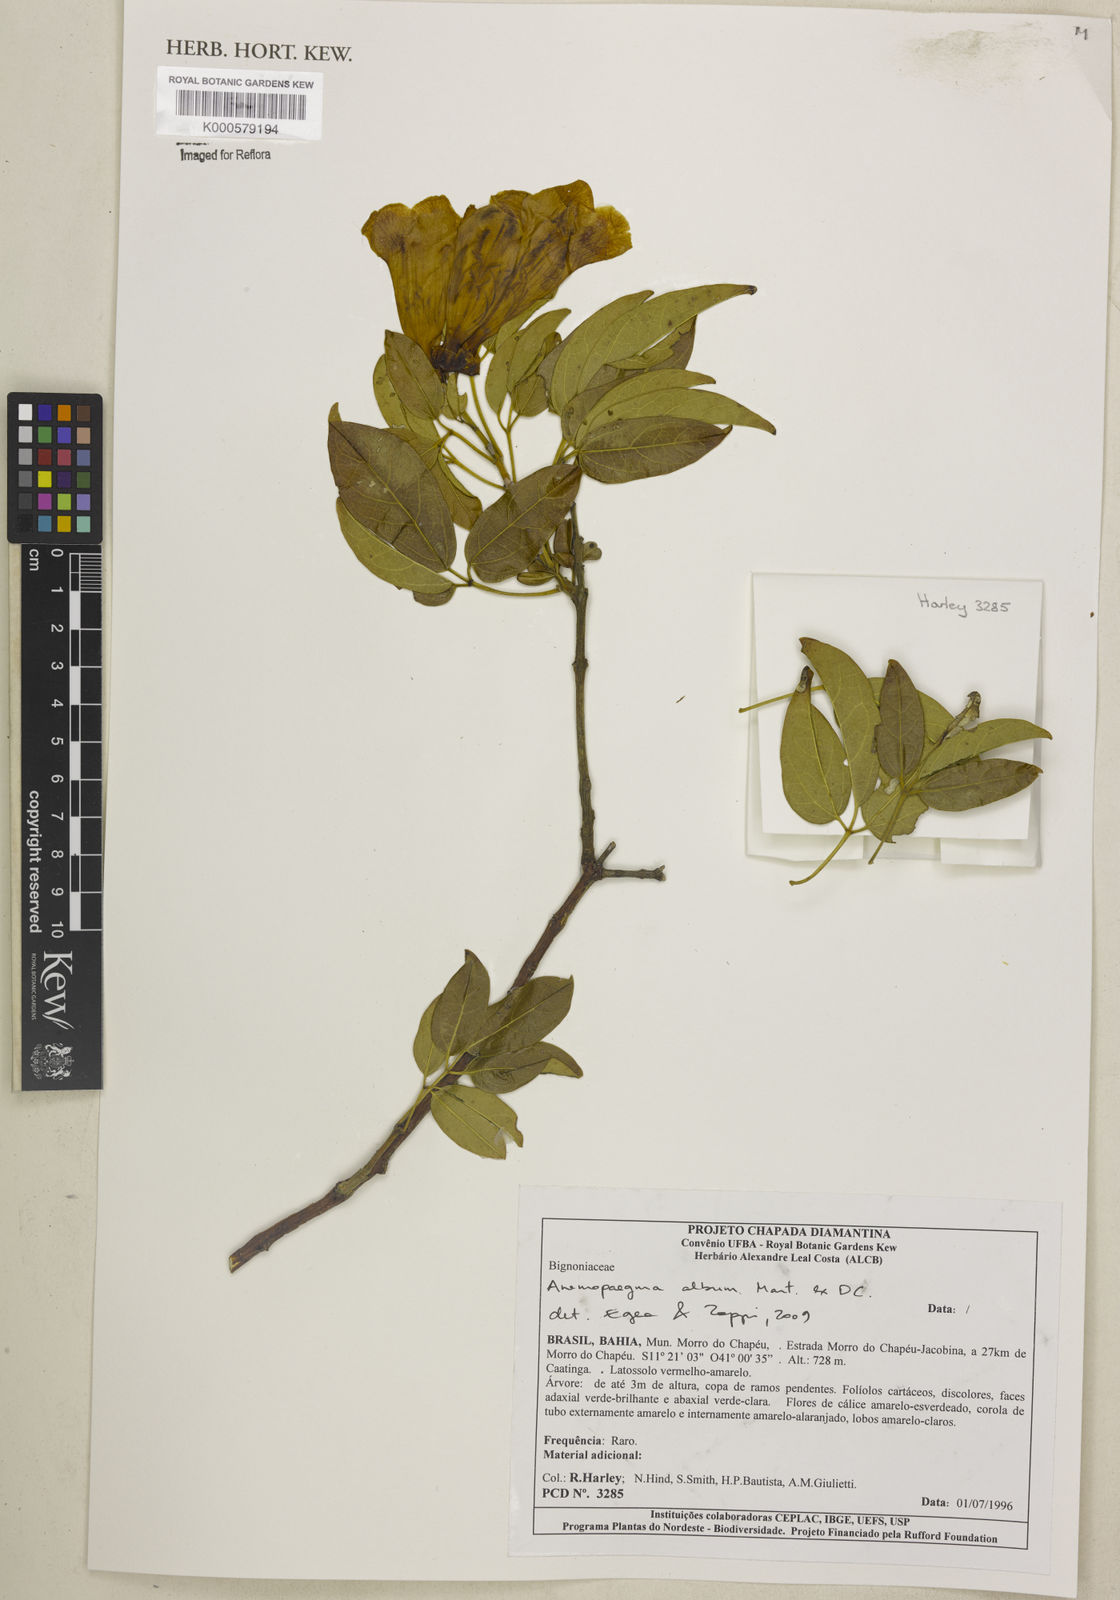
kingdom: Plantae
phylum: Tracheophyta
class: Magnoliopsida
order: Lamiales
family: Bignoniaceae
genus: Anemopaegma
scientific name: Anemopaegma
